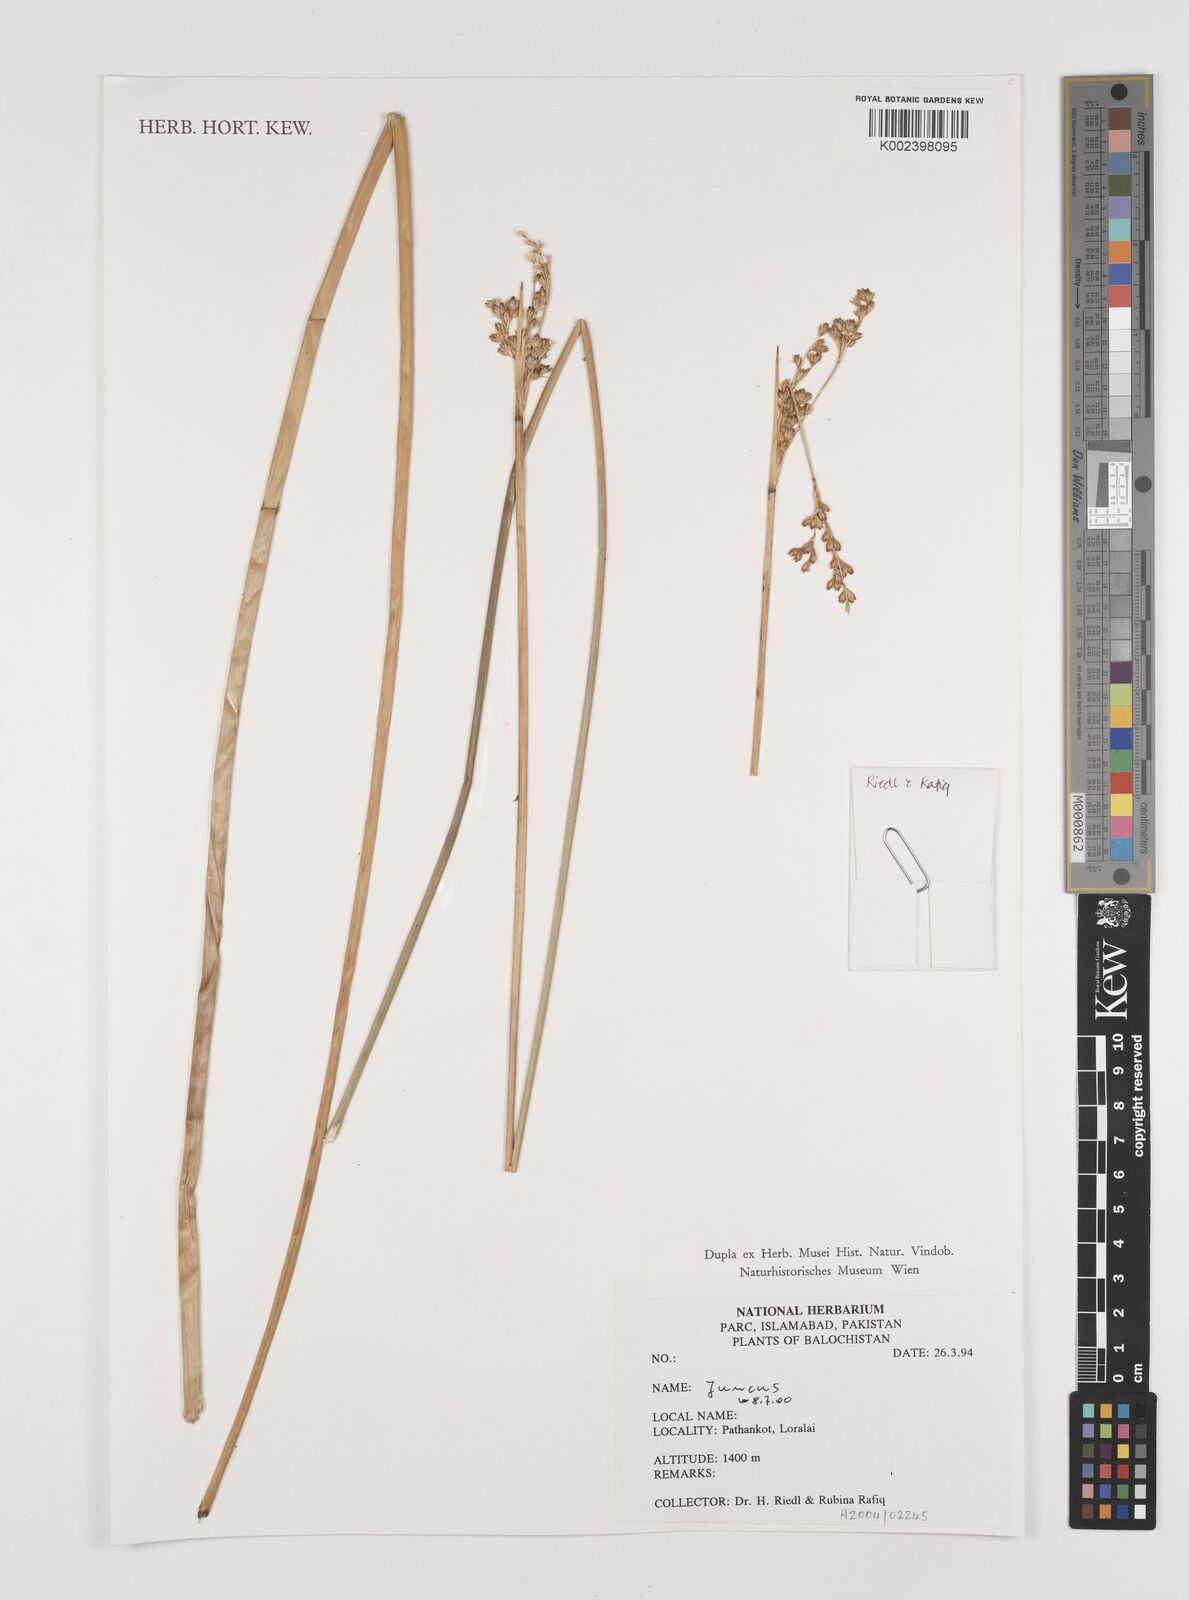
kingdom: Plantae
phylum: Tracheophyta
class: Liliopsida
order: Poales
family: Juncaceae
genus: Juncus
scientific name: Juncus
